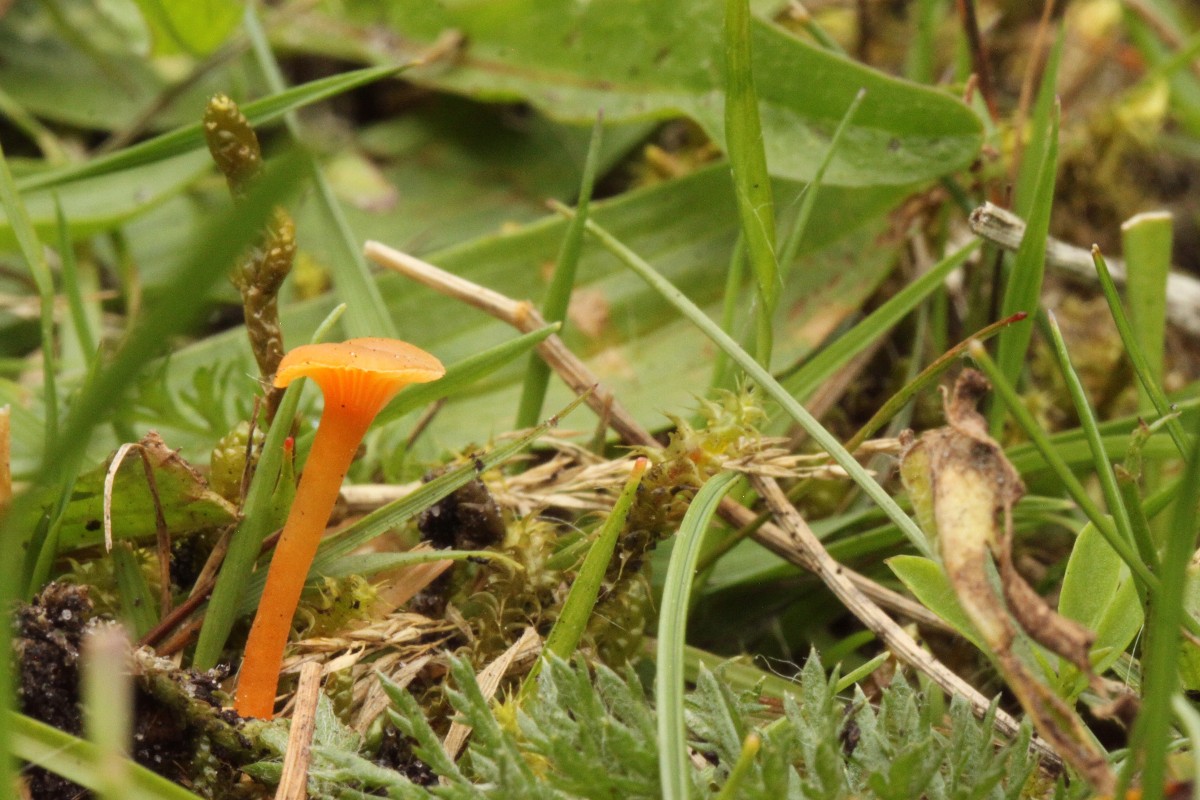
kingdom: Fungi
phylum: Basidiomycota
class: Agaricomycetes
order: Agaricales
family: Hygrophoraceae
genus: Hygrocybe
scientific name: Hygrocybe cantharellus
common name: kantarel-vokshat
